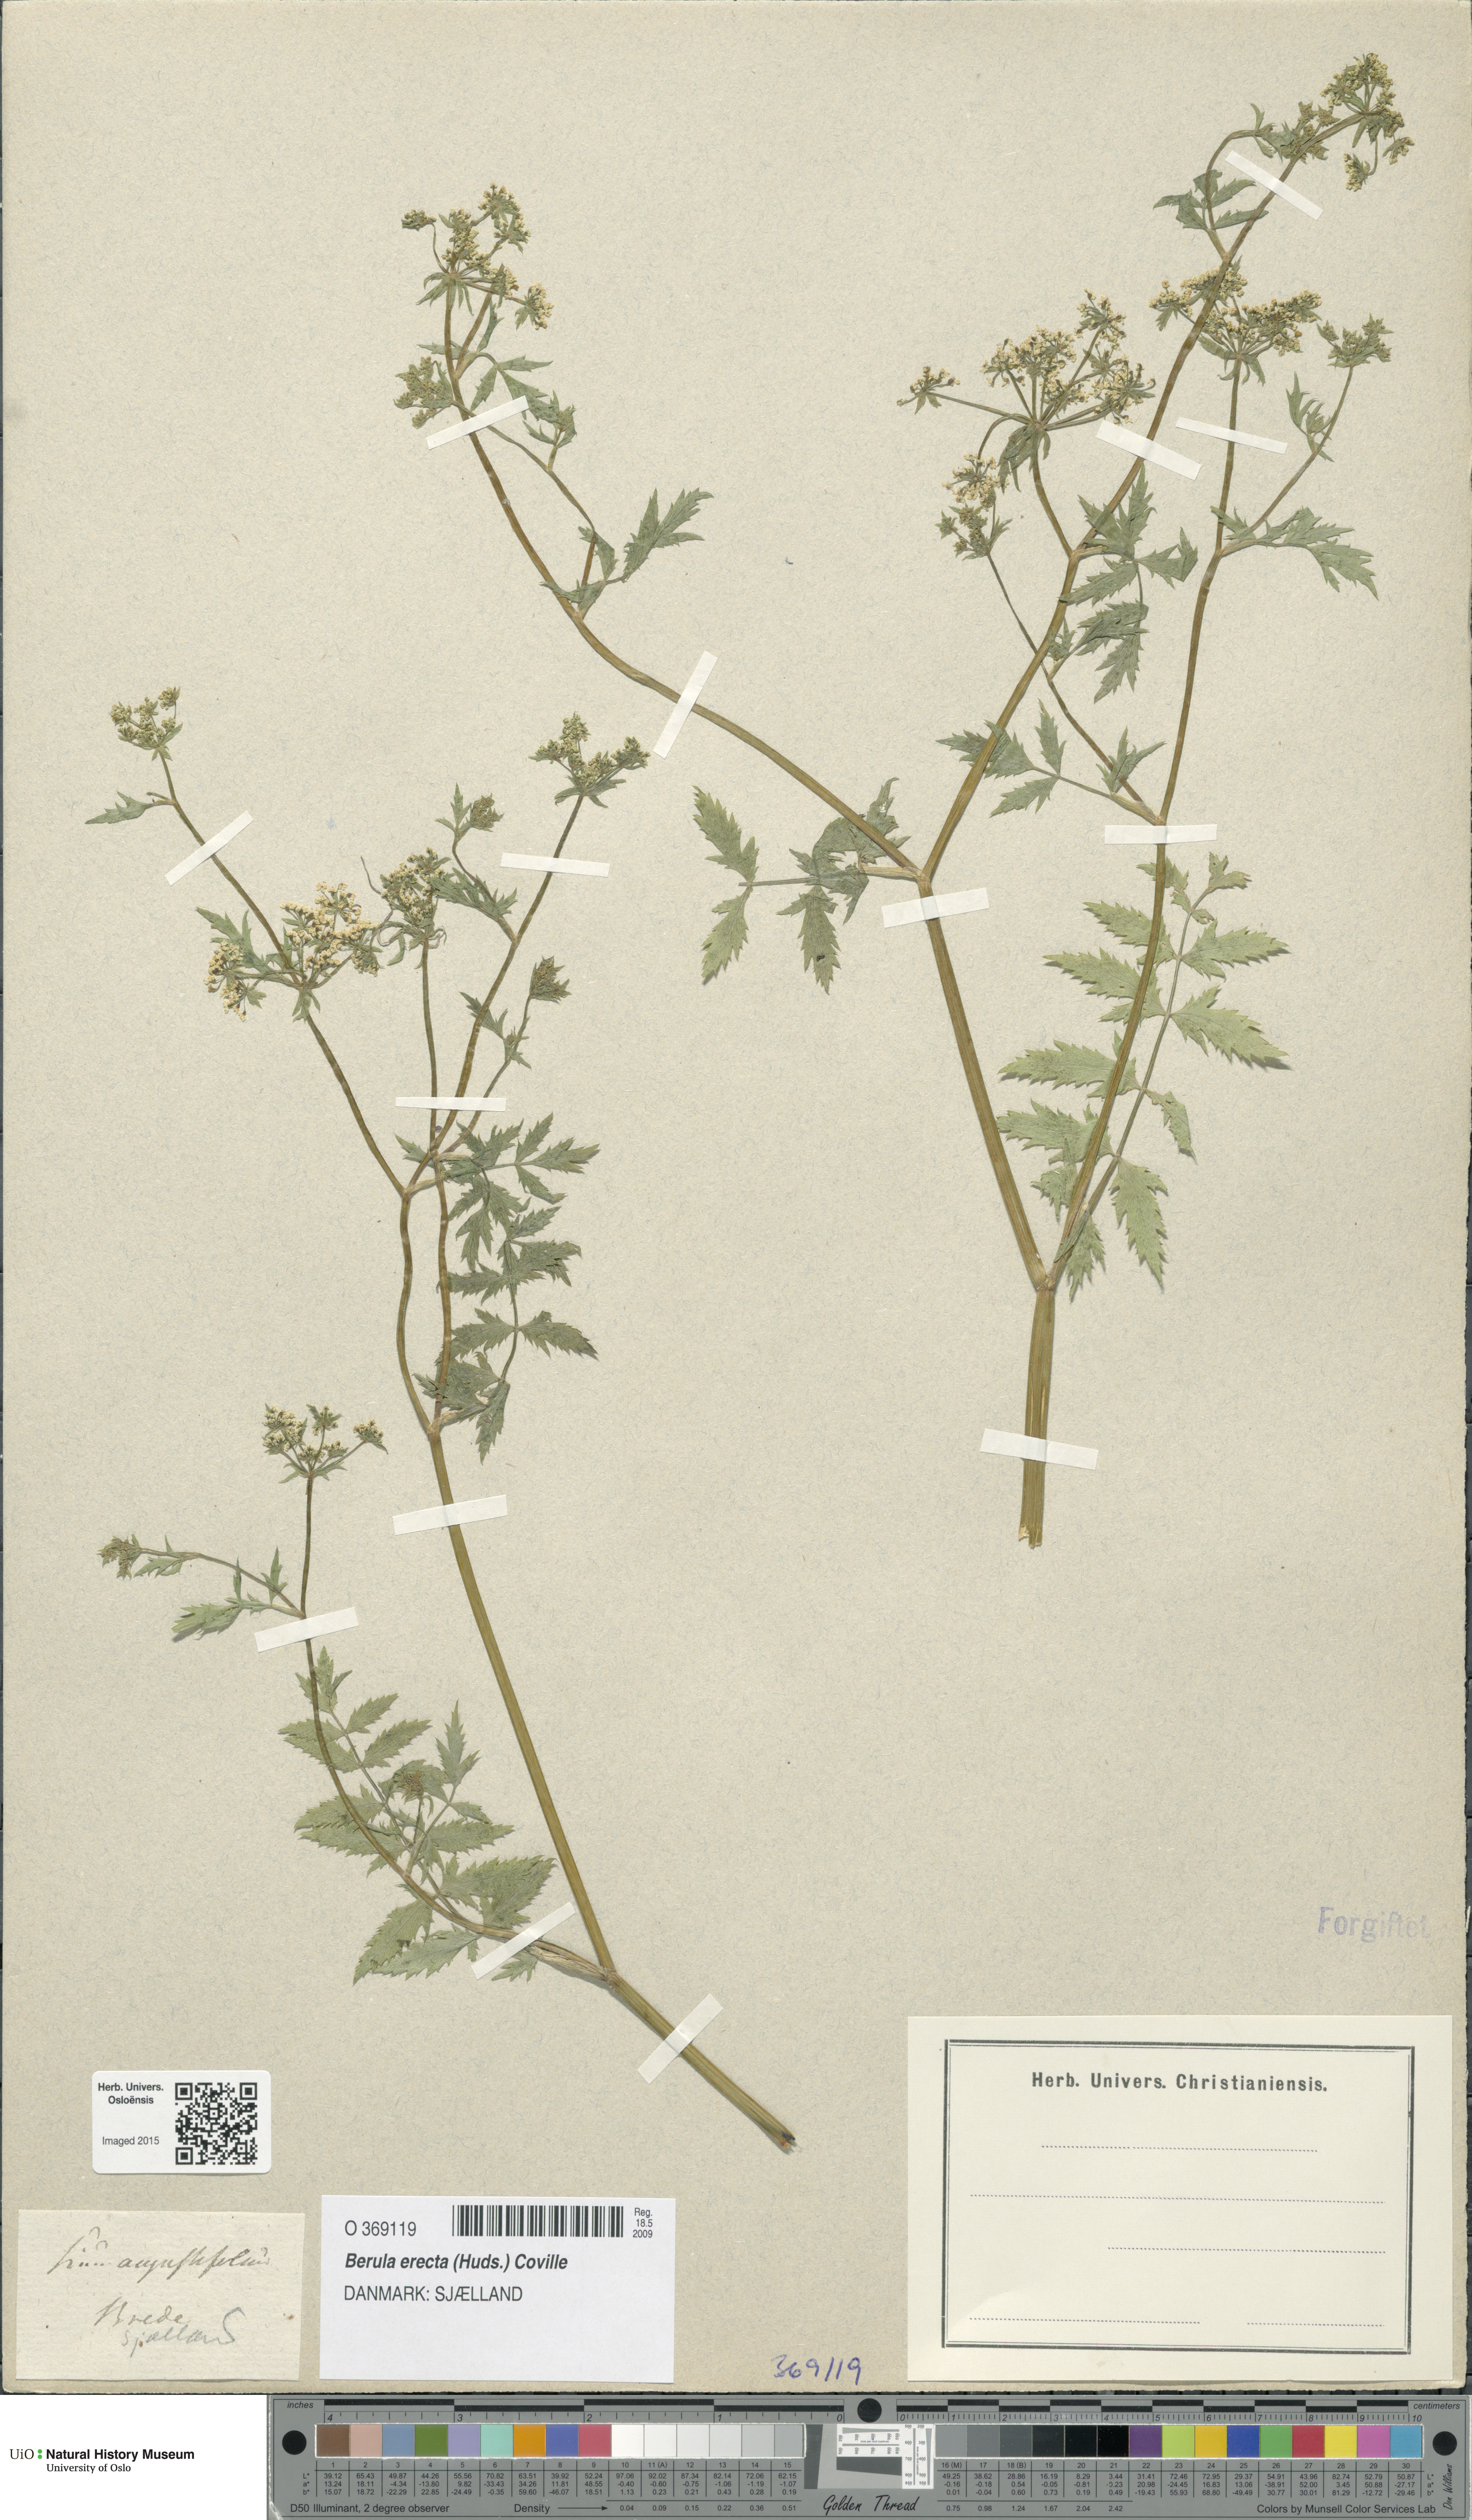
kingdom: Plantae
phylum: Tracheophyta
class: Magnoliopsida
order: Apiales
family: Apiaceae
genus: Berula
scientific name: Berula erecta
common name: Lesser water-parsnip
